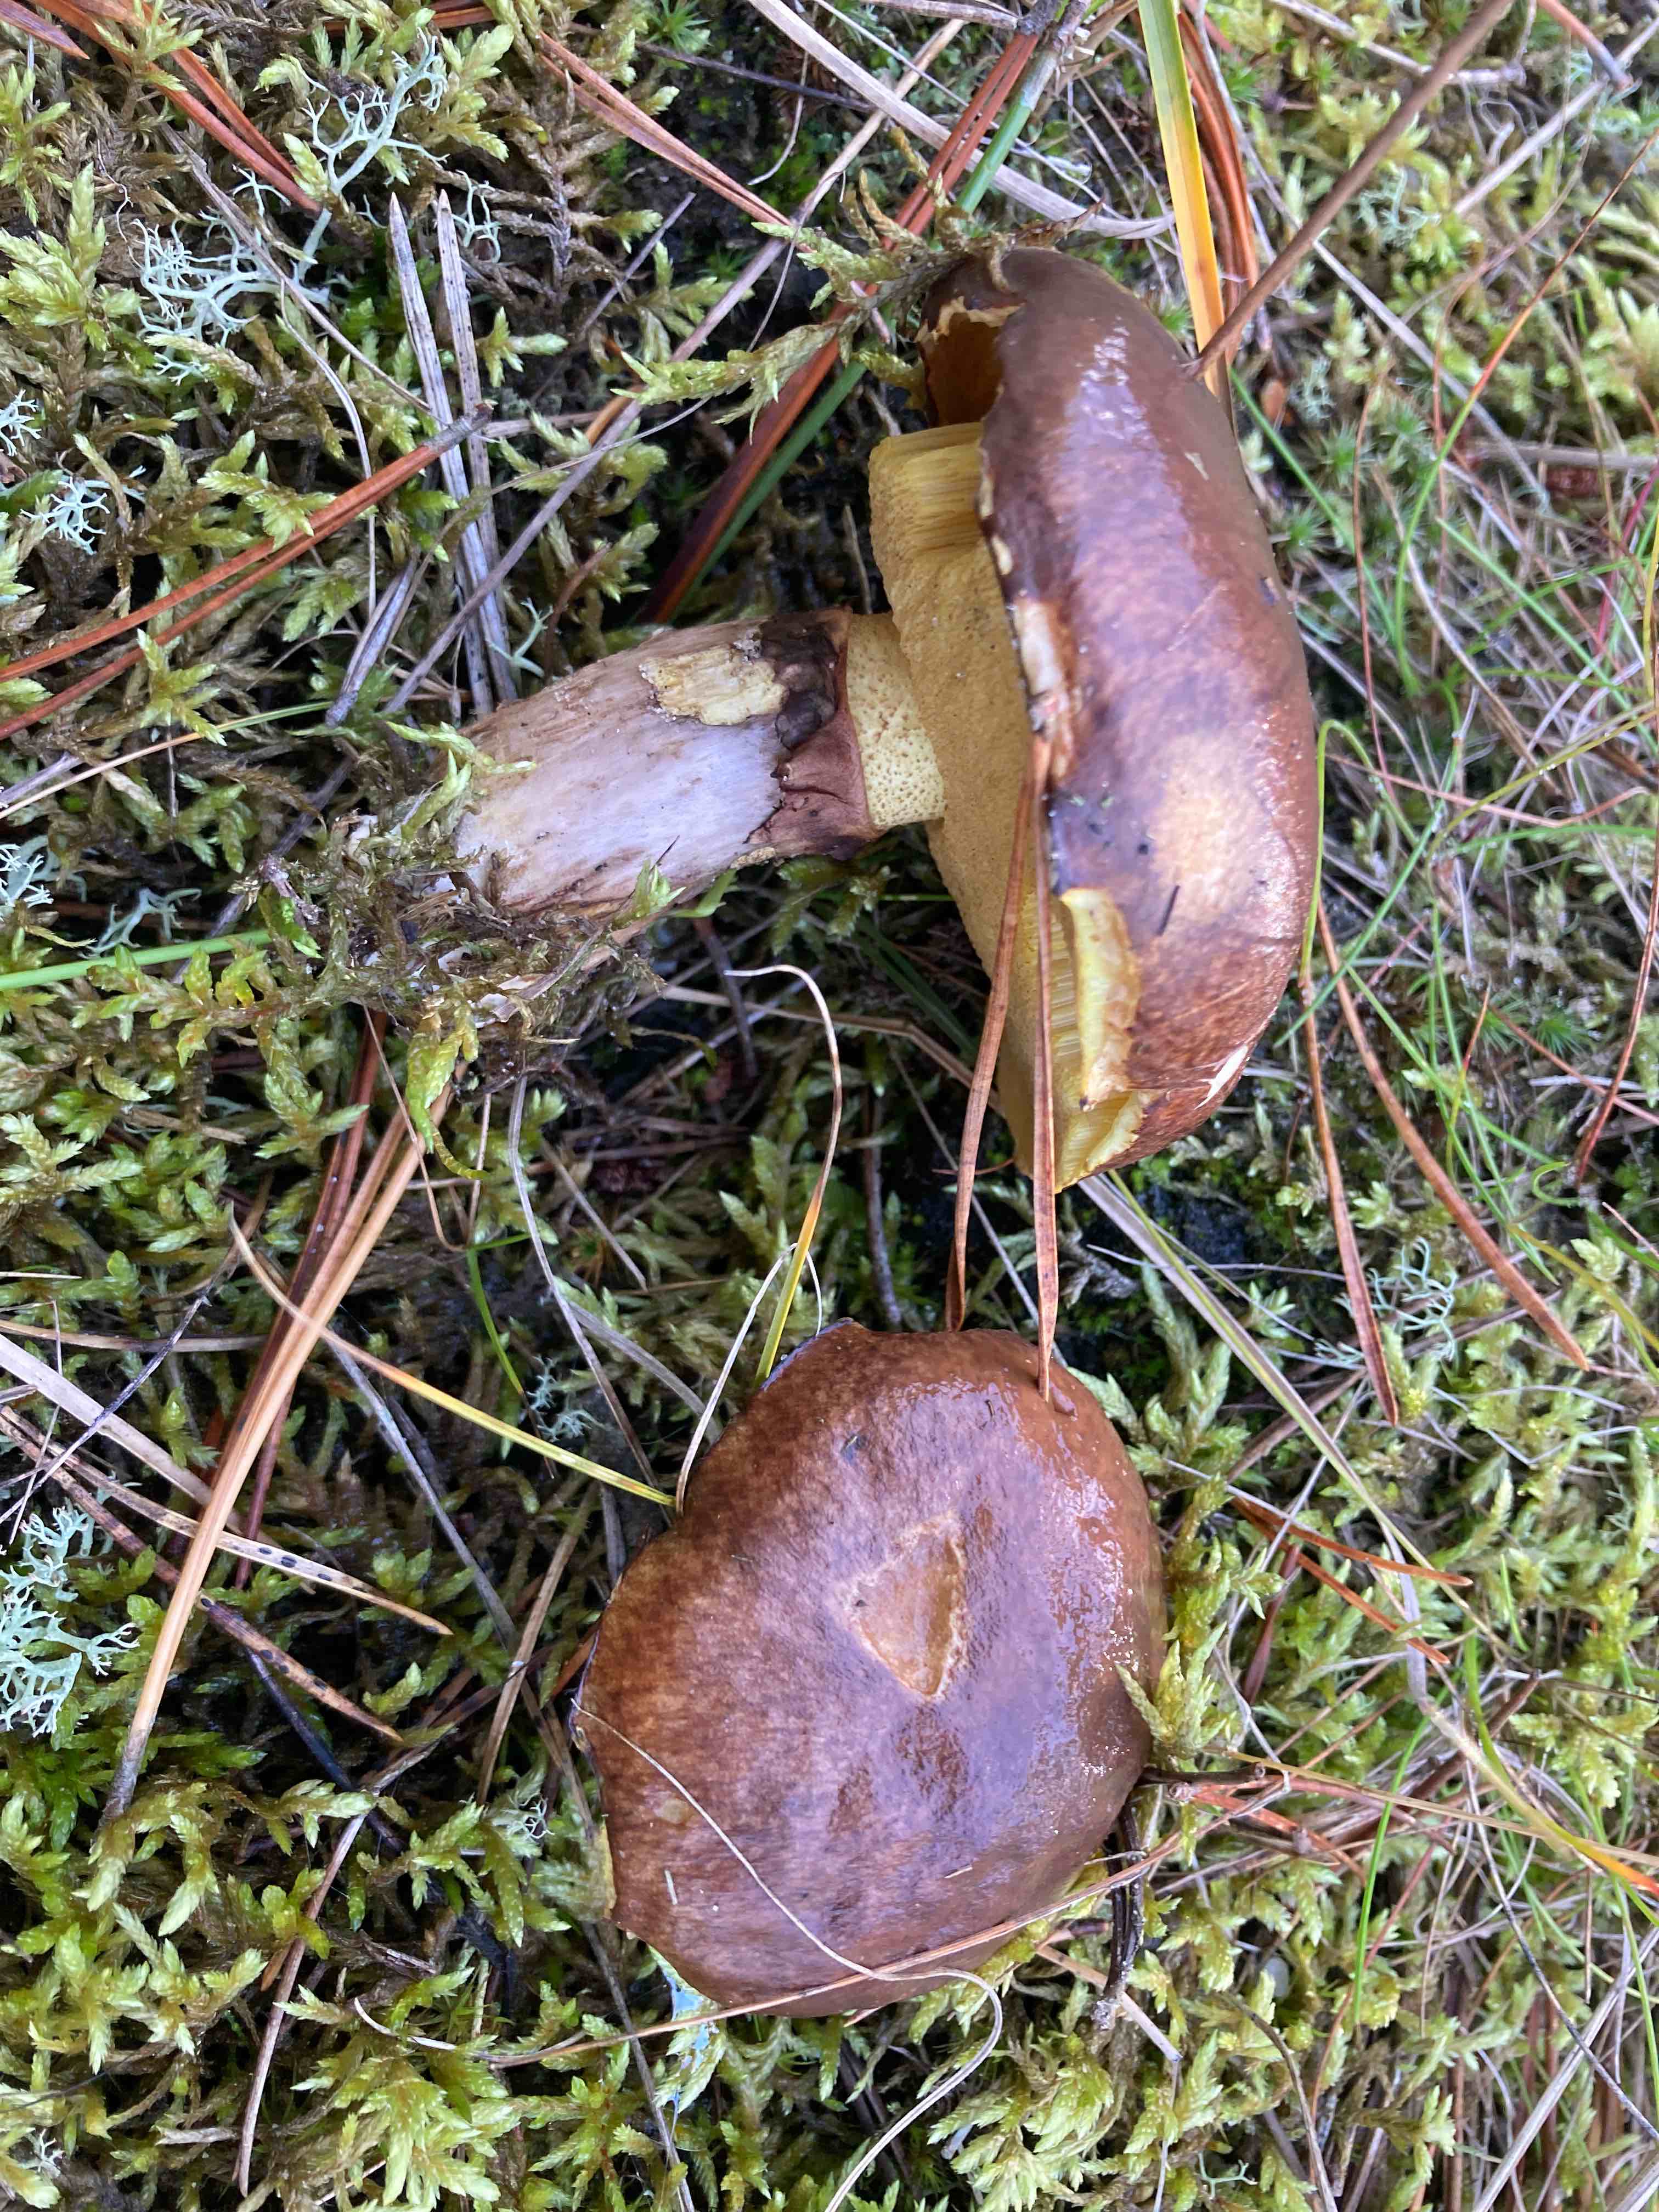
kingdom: Fungi
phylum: Basidiomycota
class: Agaricomycetes
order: Boletales
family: Suillaceae
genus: Suillus
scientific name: Suillus luteus
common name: brungul slimrørhat
